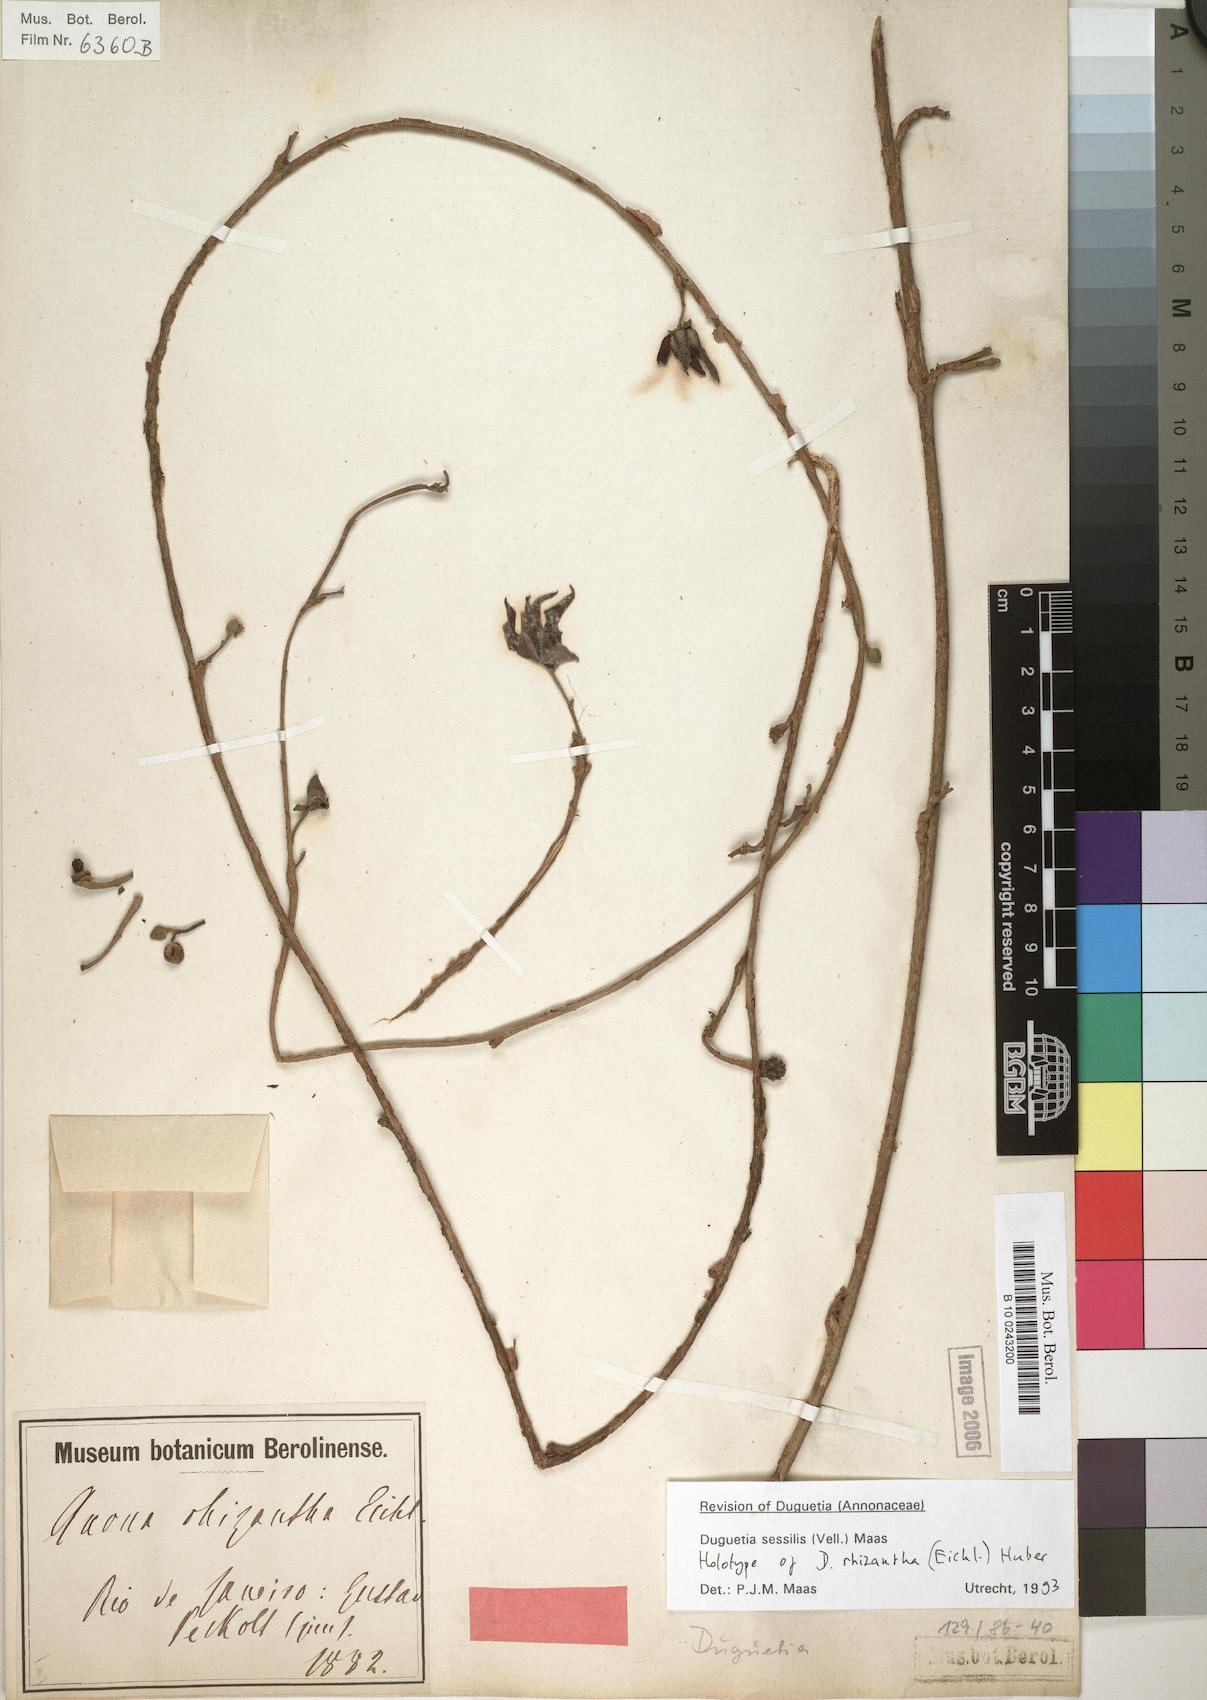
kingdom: Plantae
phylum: Tracheophyta
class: Magnoliopsida
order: Magnoliales
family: Annonaceae
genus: Duguetia
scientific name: Duguetia sessilis
